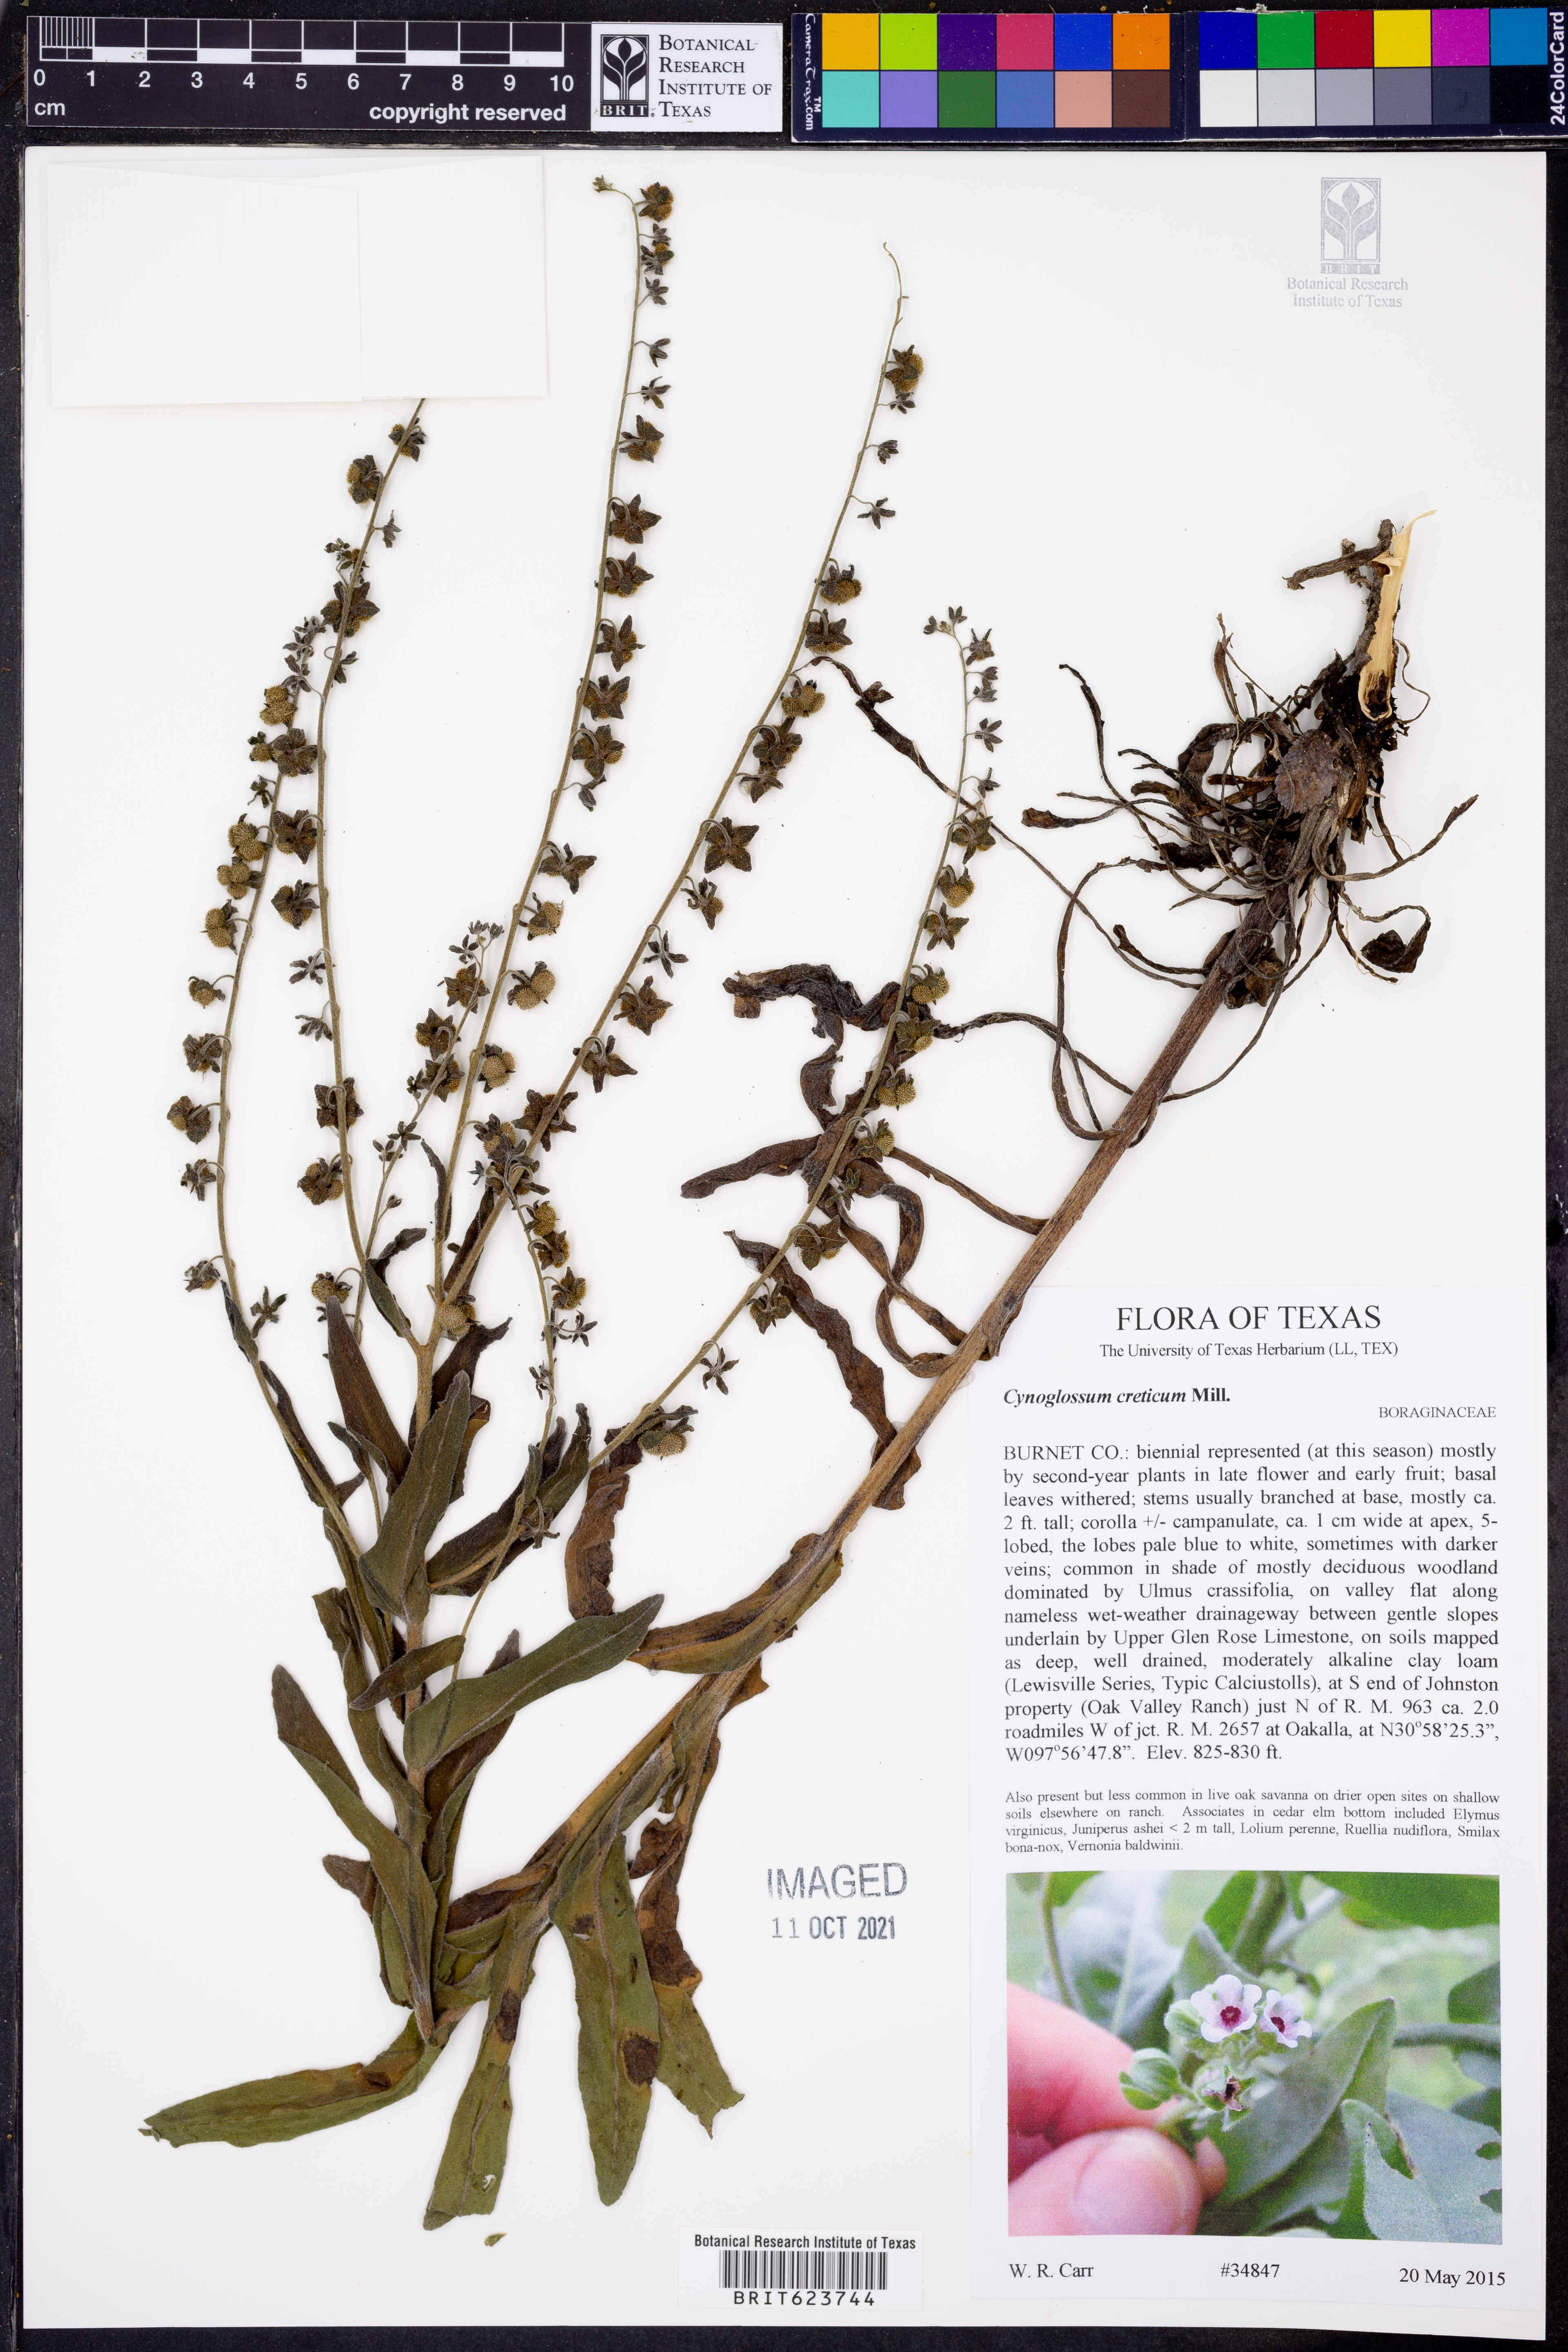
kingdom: Plantae
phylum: Tracheophyta
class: Magnoliopsida
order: Boraginales
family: Boraginaceae
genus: Cynoglossum
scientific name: Cynoglossum creticum
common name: Blue hound's tongue
